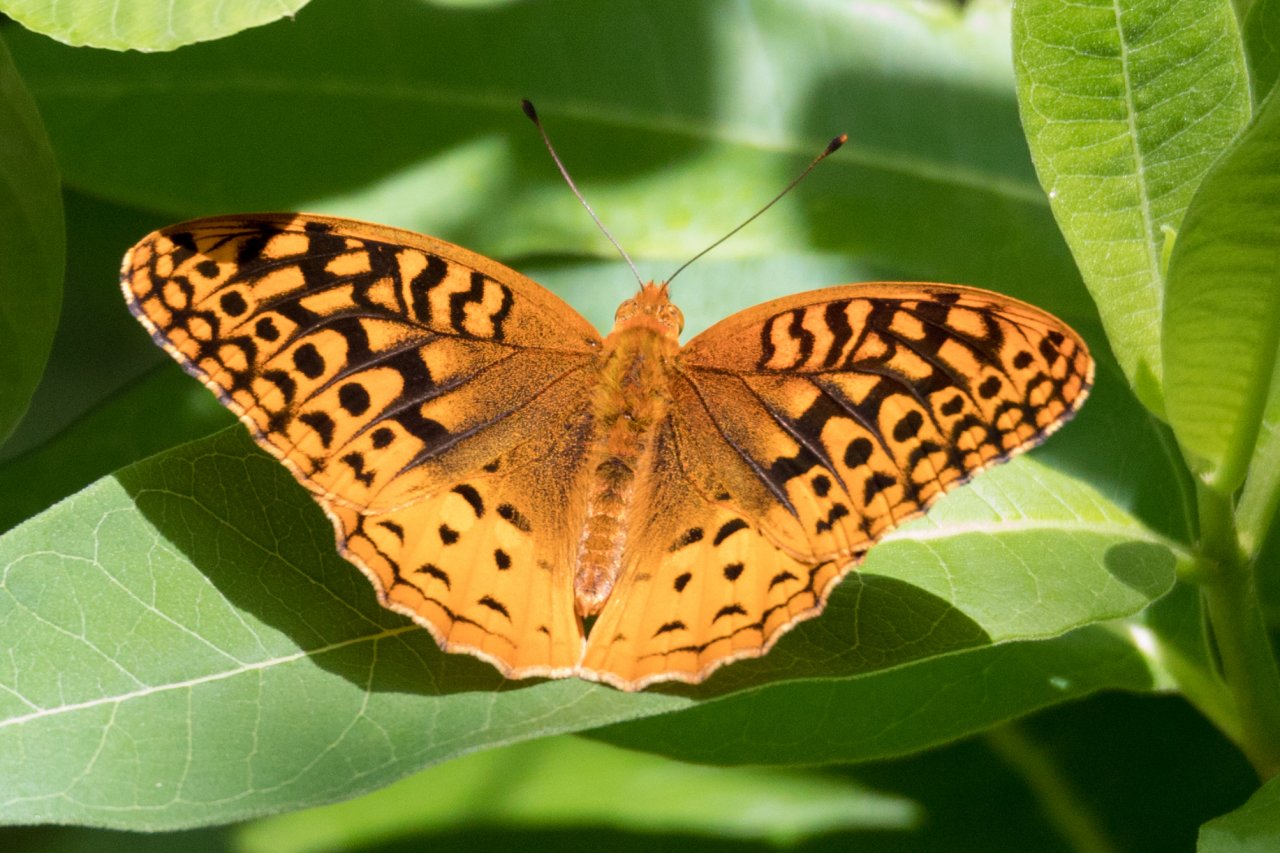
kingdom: Animalia
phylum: Arthropoda
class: Insecta
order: Lepidoptera
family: Nymphalidae
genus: Speyeria
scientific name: Speyeria cybele
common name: Great Spangled Fritillary
